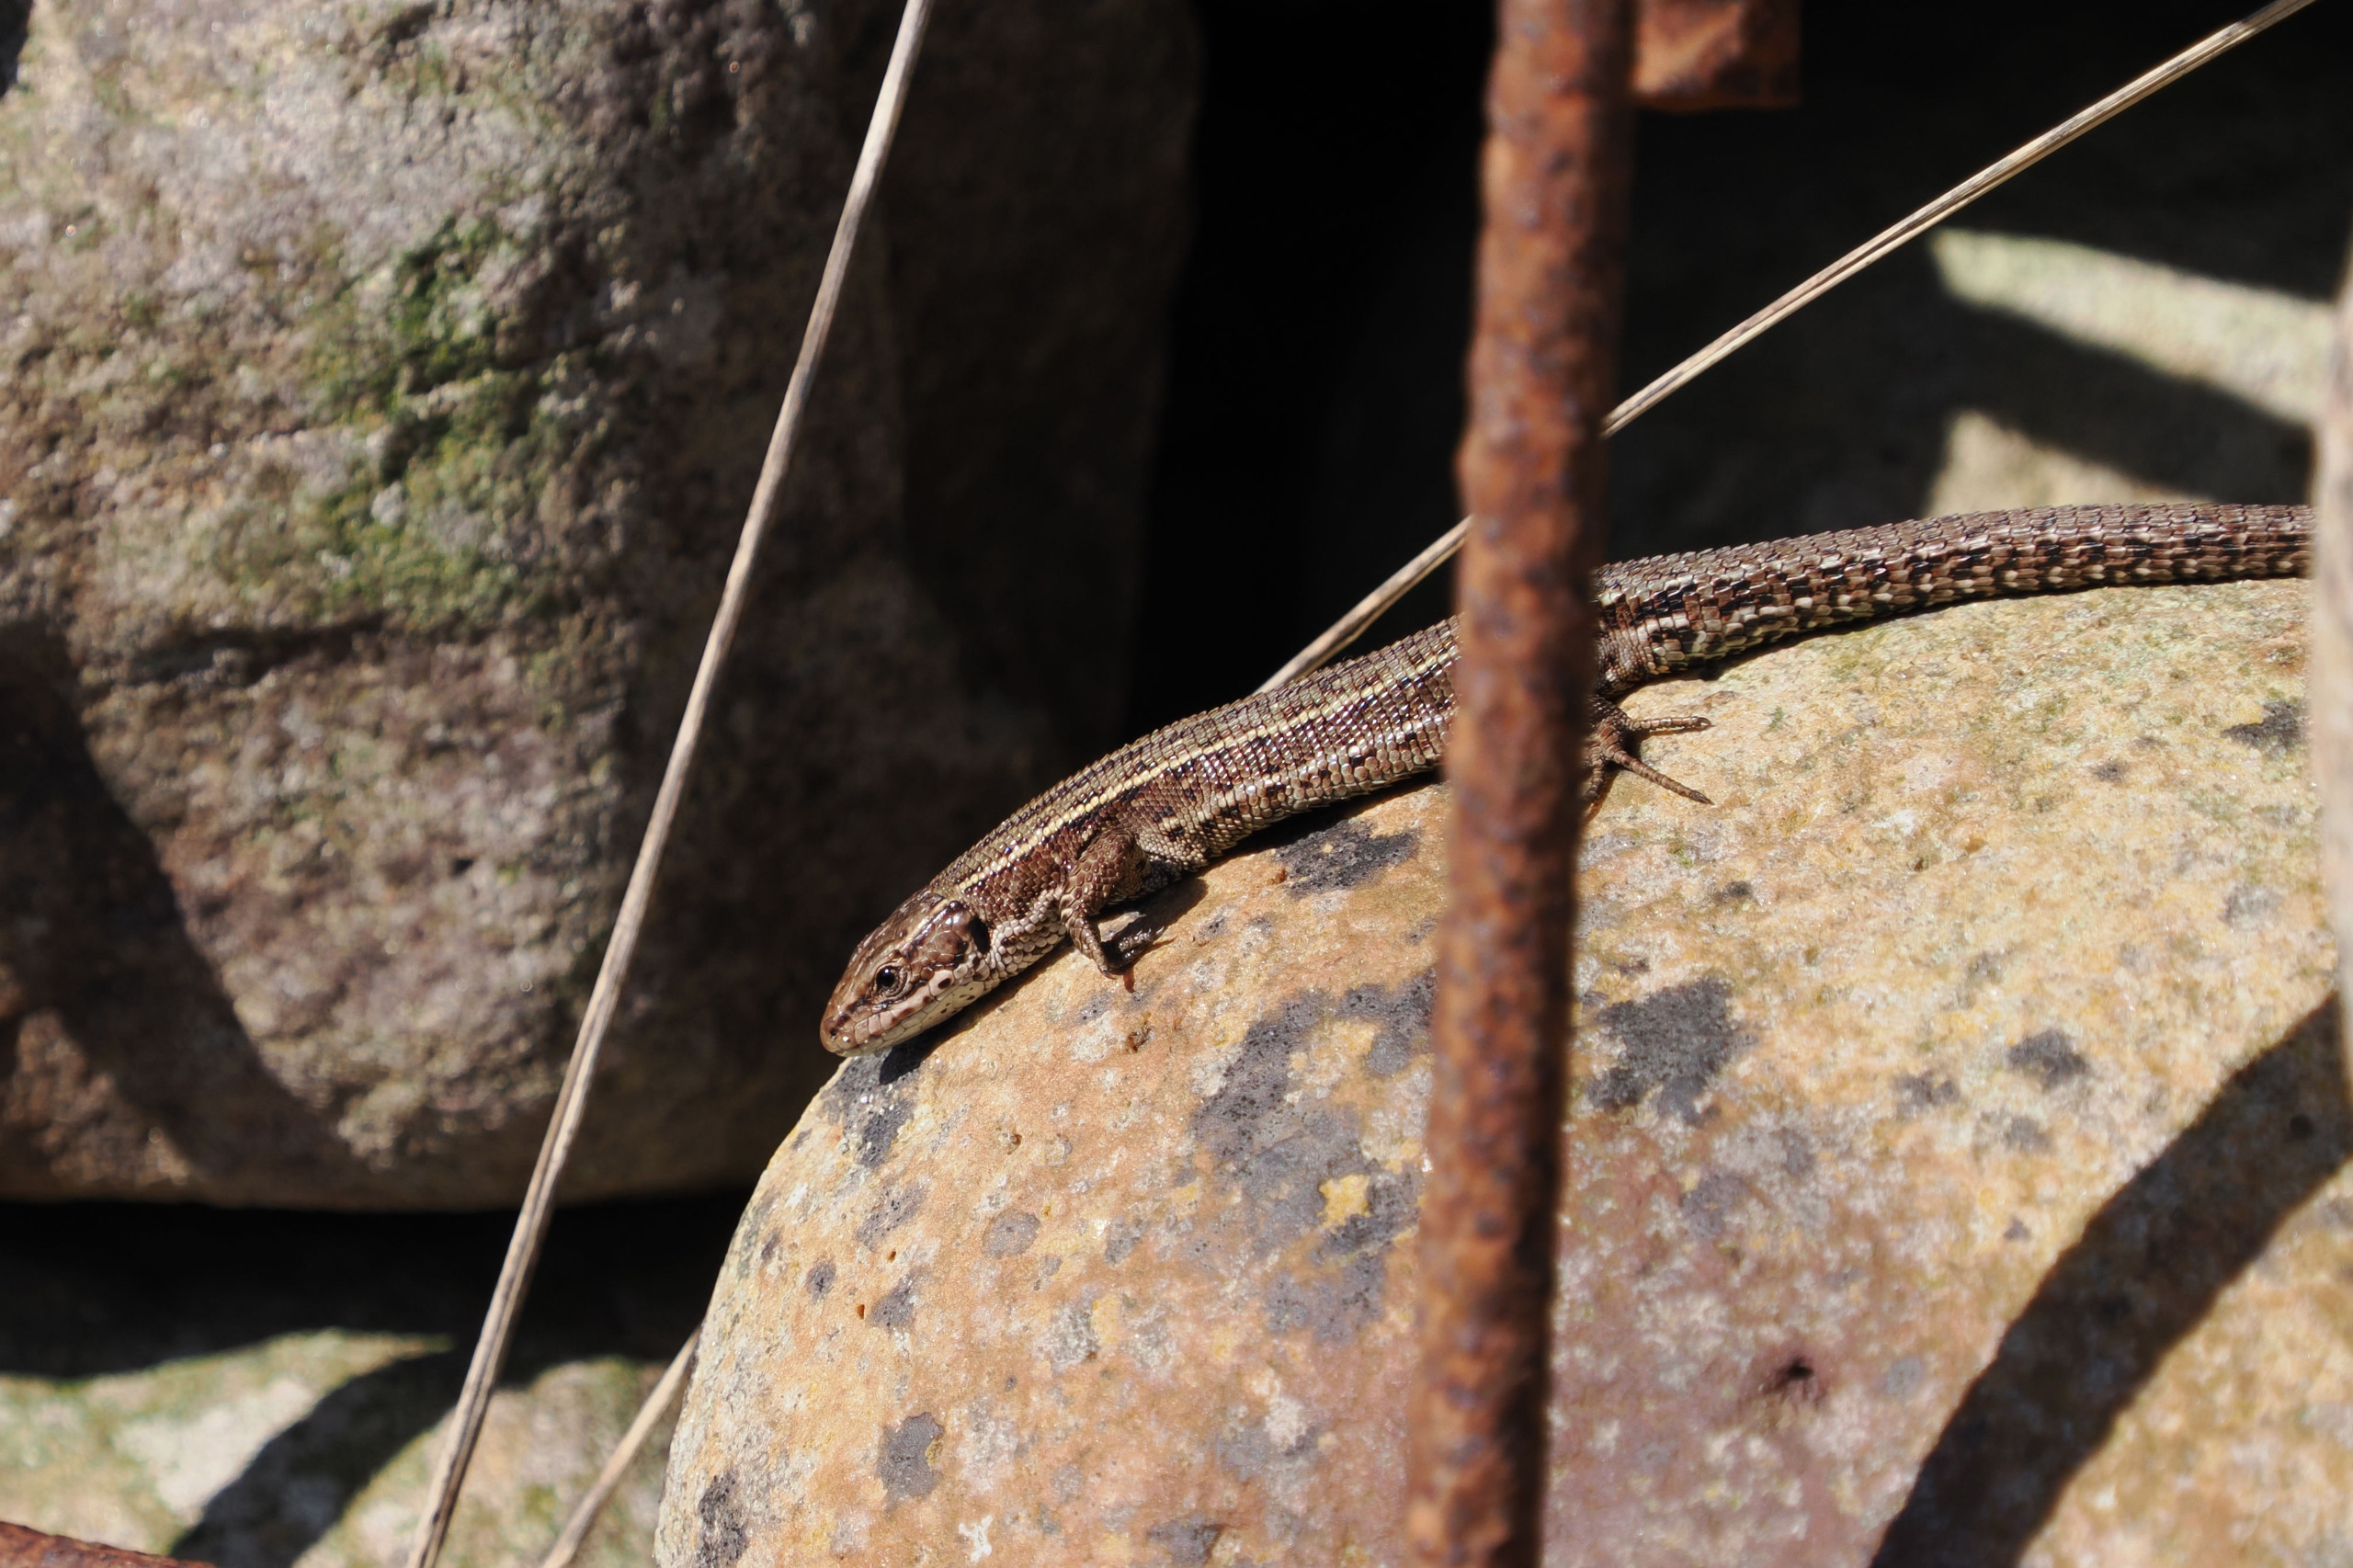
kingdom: Animalia
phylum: Chordata
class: Squamata
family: Lacertidae
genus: Zootoca
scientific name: Zootoca vivipara
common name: Skovfirben
